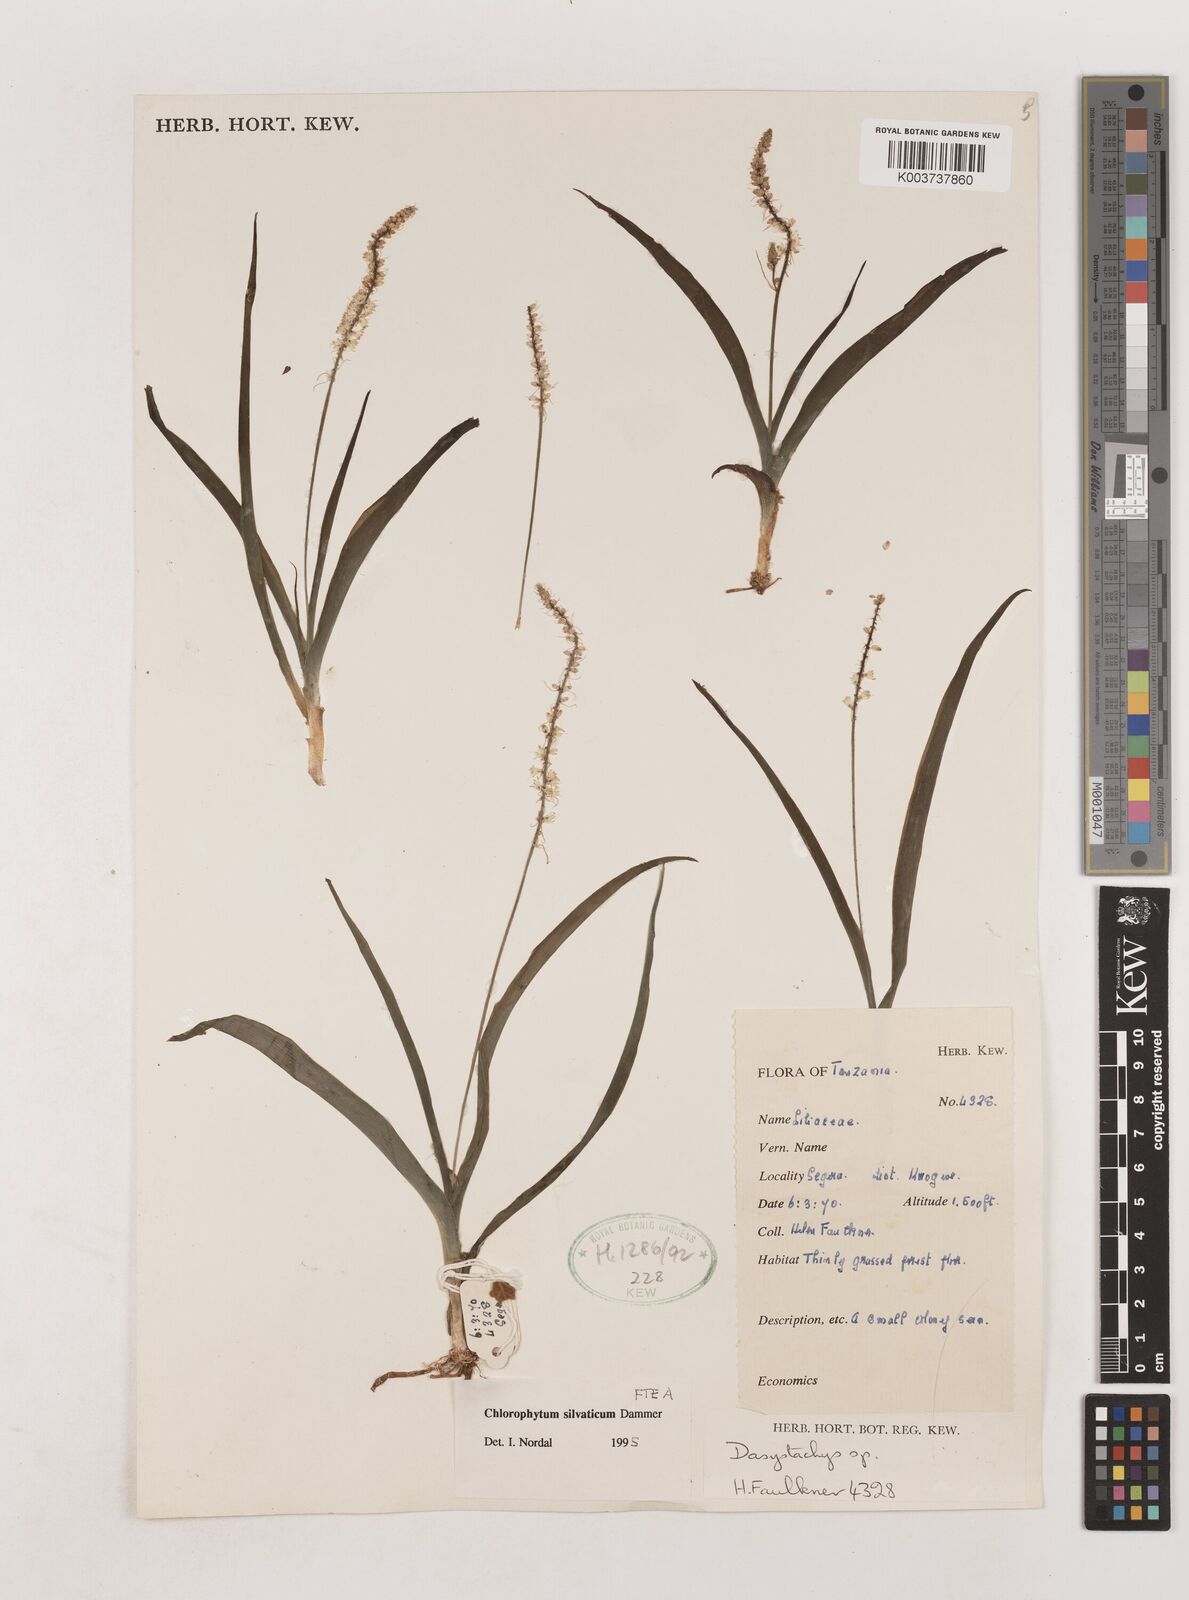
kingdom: Plantae
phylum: Tracheophyta
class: Liliopsida
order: Asparagales
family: Asparagaceae
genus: Chlorophytum
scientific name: Chlorophytum africanum
